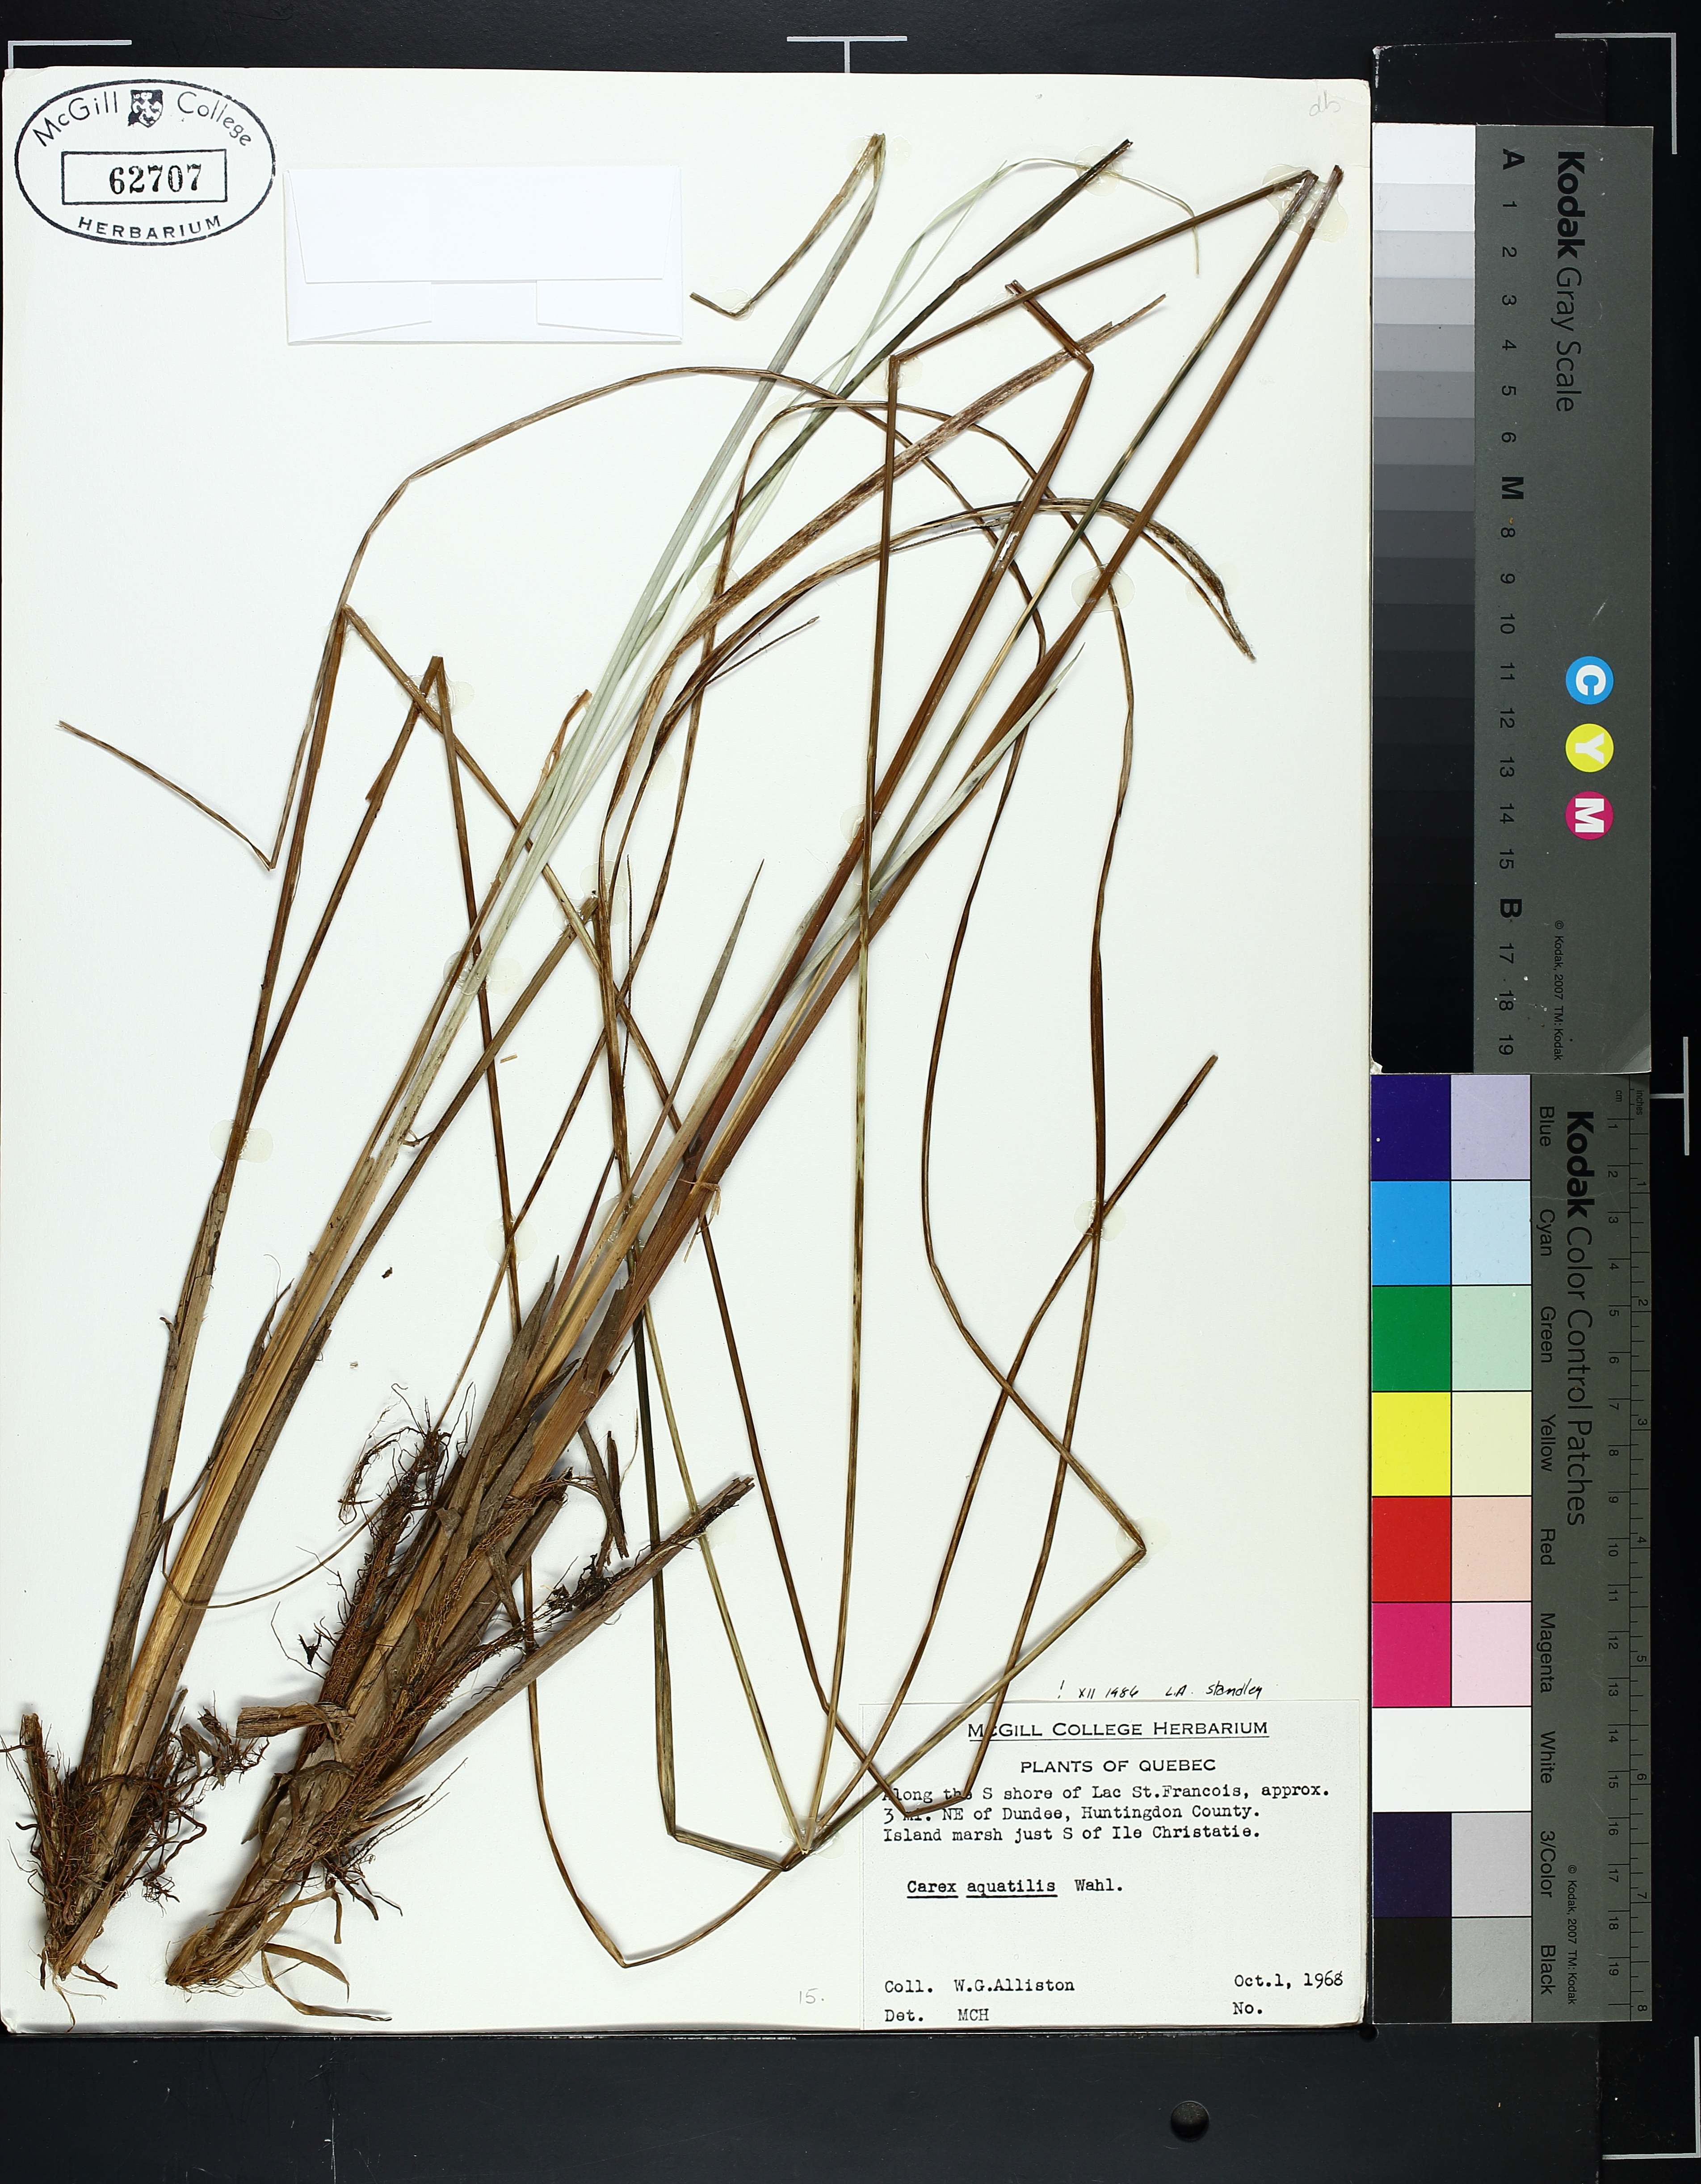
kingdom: Plantae
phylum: Tracheophyta
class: Liliopsida
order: Poales
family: Cyperaceae
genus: Carex
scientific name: Carex aquatilis
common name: Water sedge
